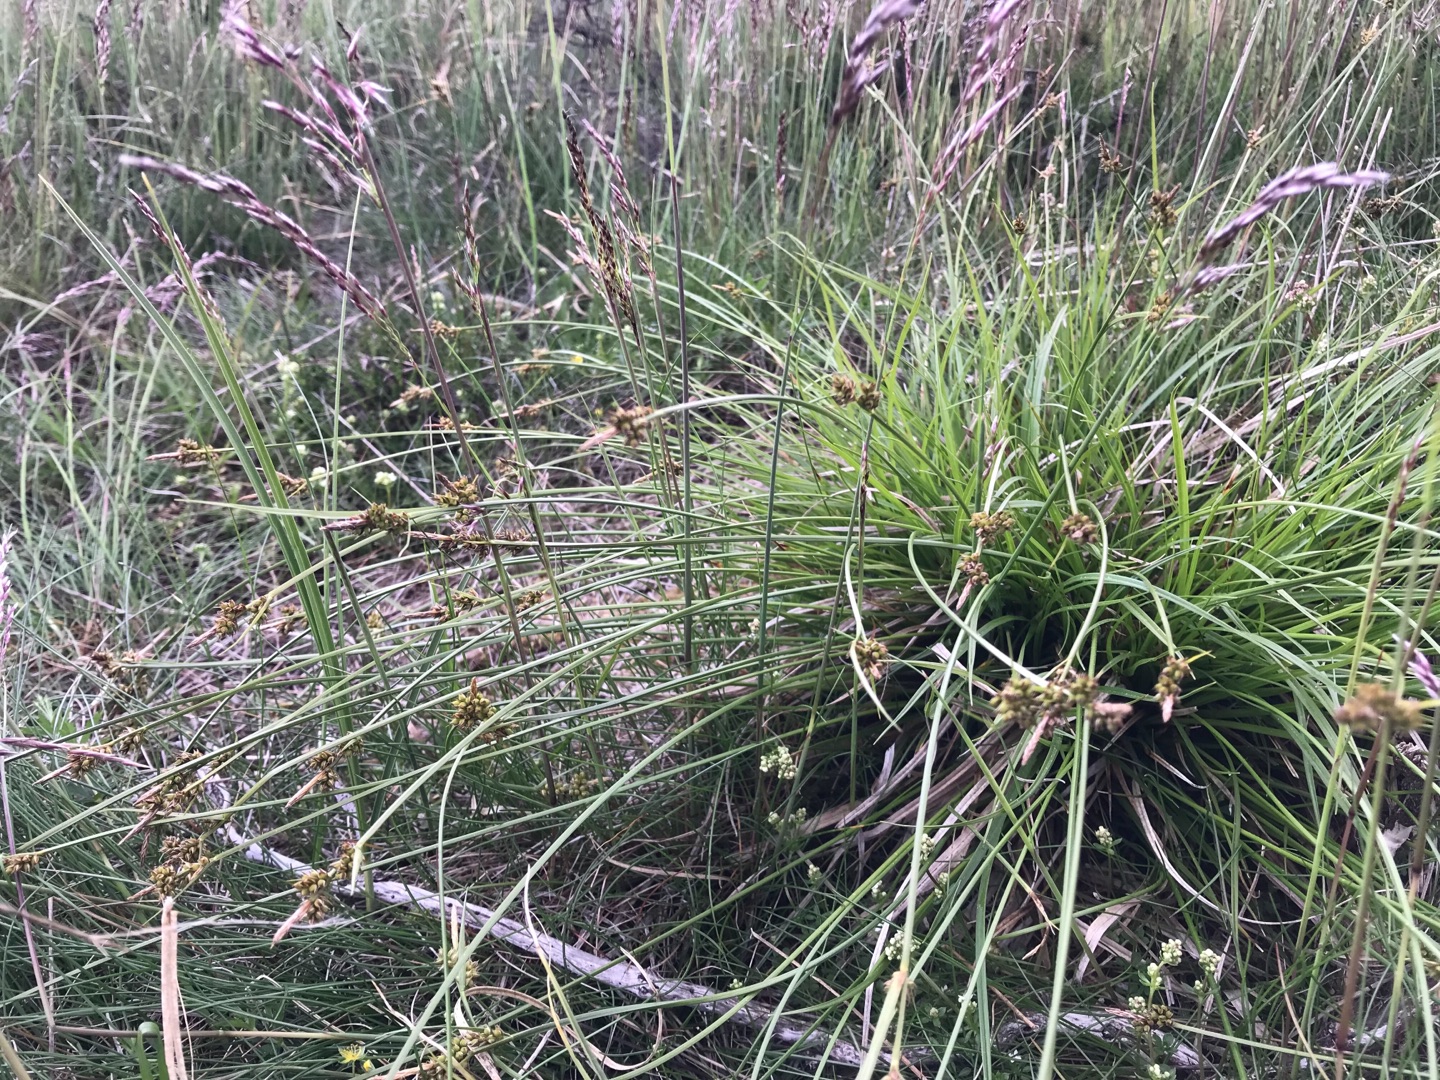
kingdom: Plantae
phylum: Tracheophyta
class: Liliopsida
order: Poales
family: Cyperaceae
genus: Carex
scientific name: Carex pilulifera
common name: Pille-star
